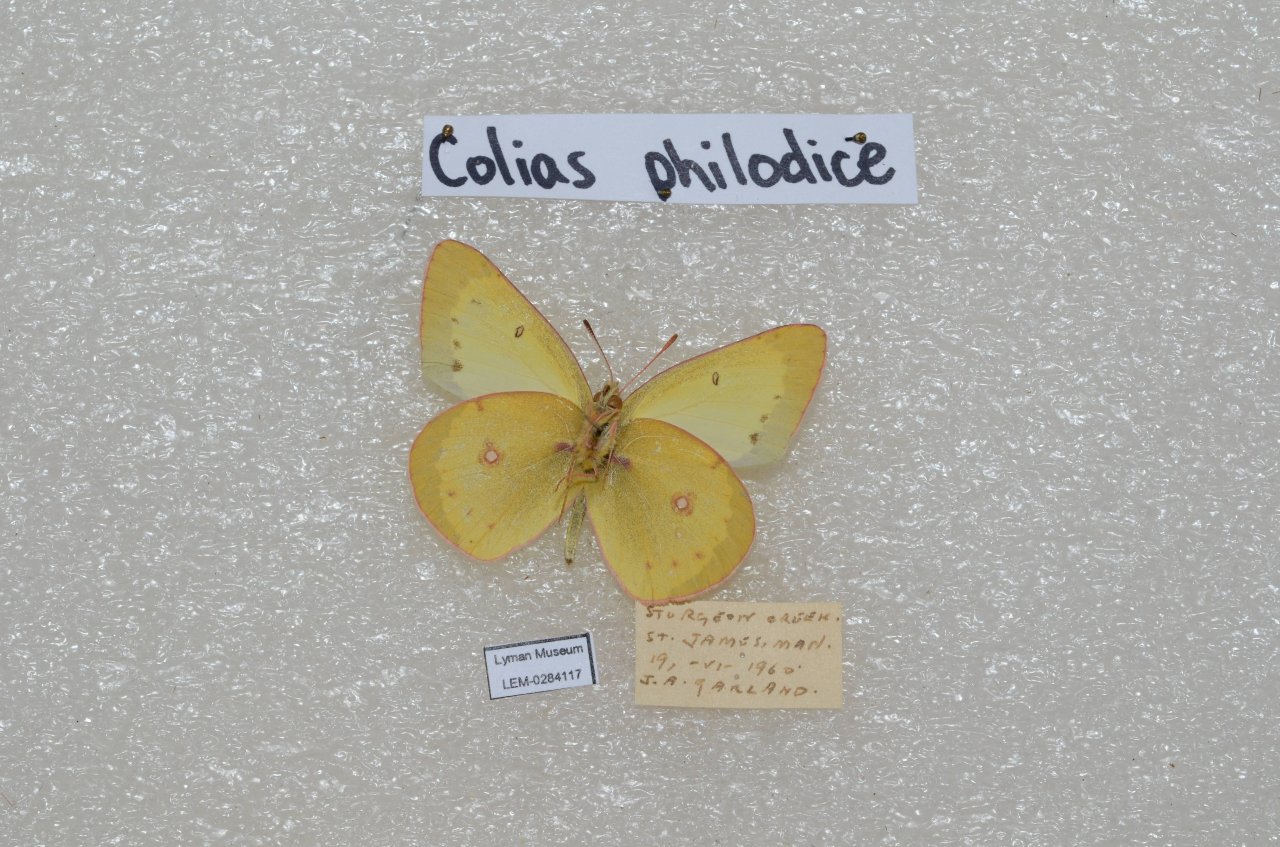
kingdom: Animalia
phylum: Arthropoda
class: Insecta
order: Lepidoptera
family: Pieridae
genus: Colias
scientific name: Colias philodice
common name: Clouded Sulphur
